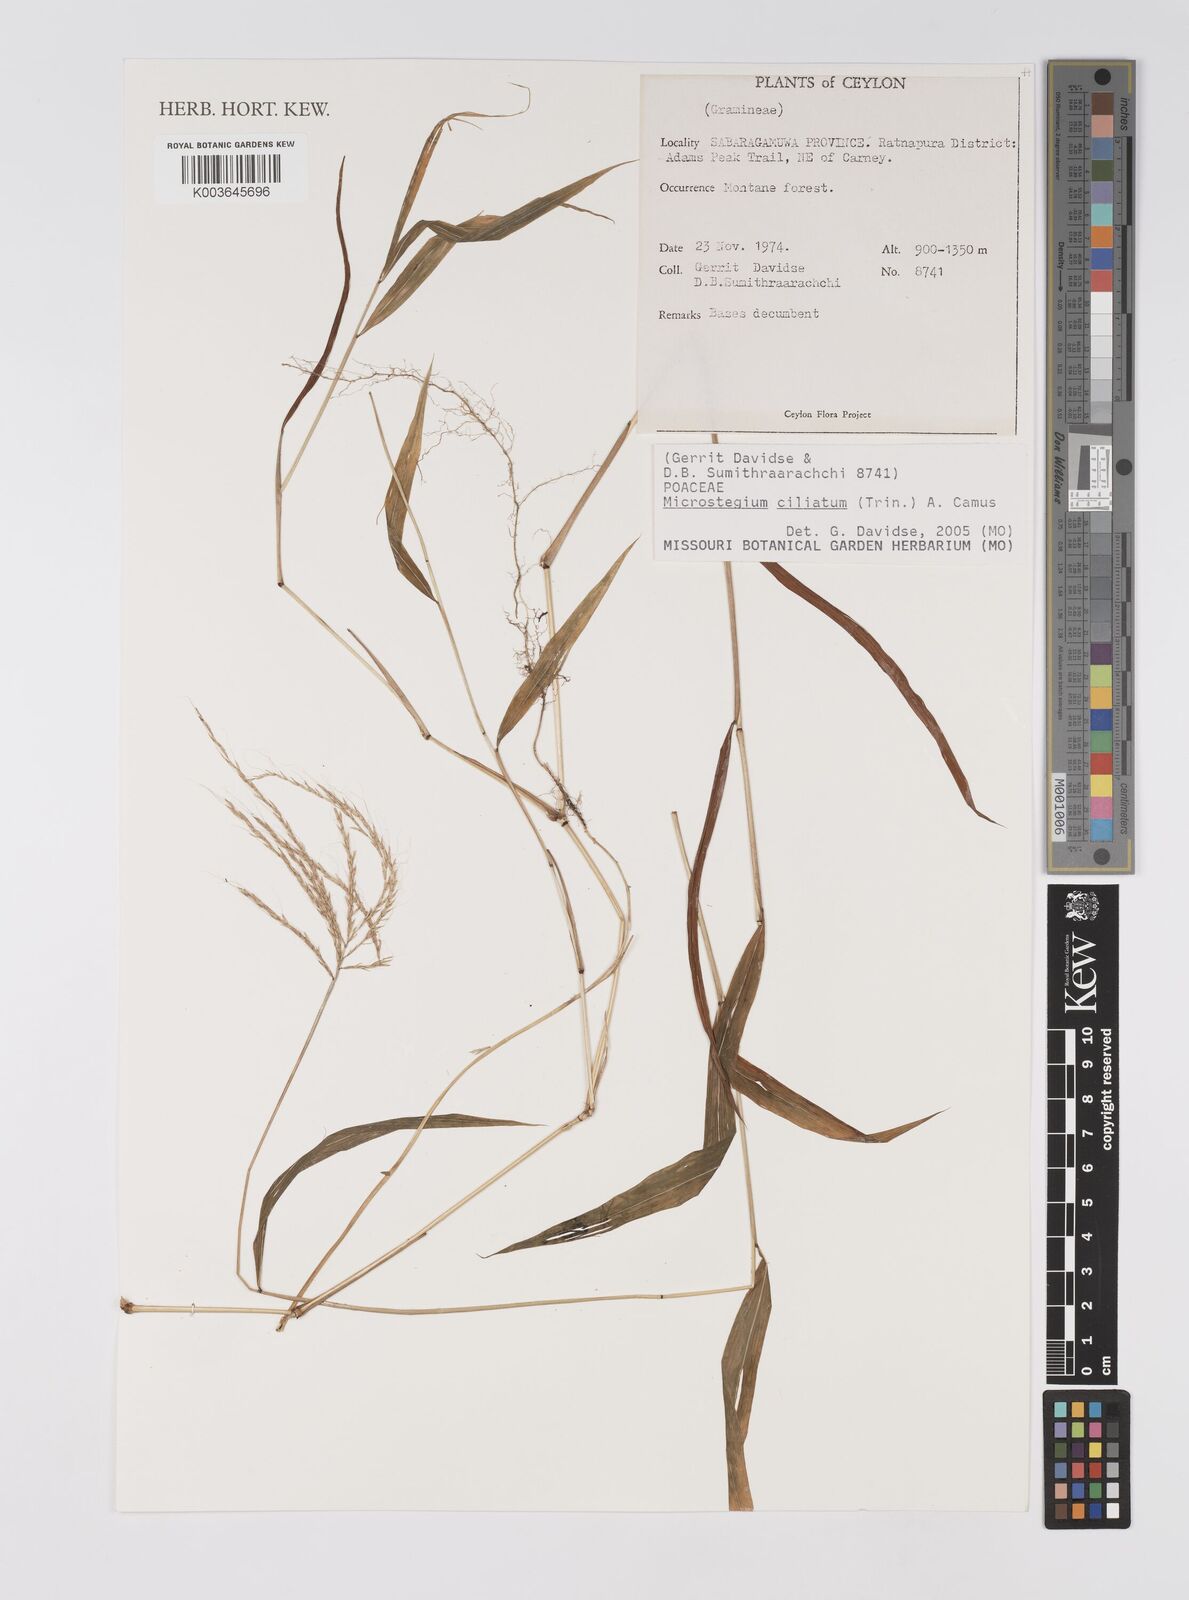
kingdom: Plantae
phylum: Tracheophyta
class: Liliopsida
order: Poales
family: Poaceae
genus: Microstegium
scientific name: Microstegium fasciculatum
